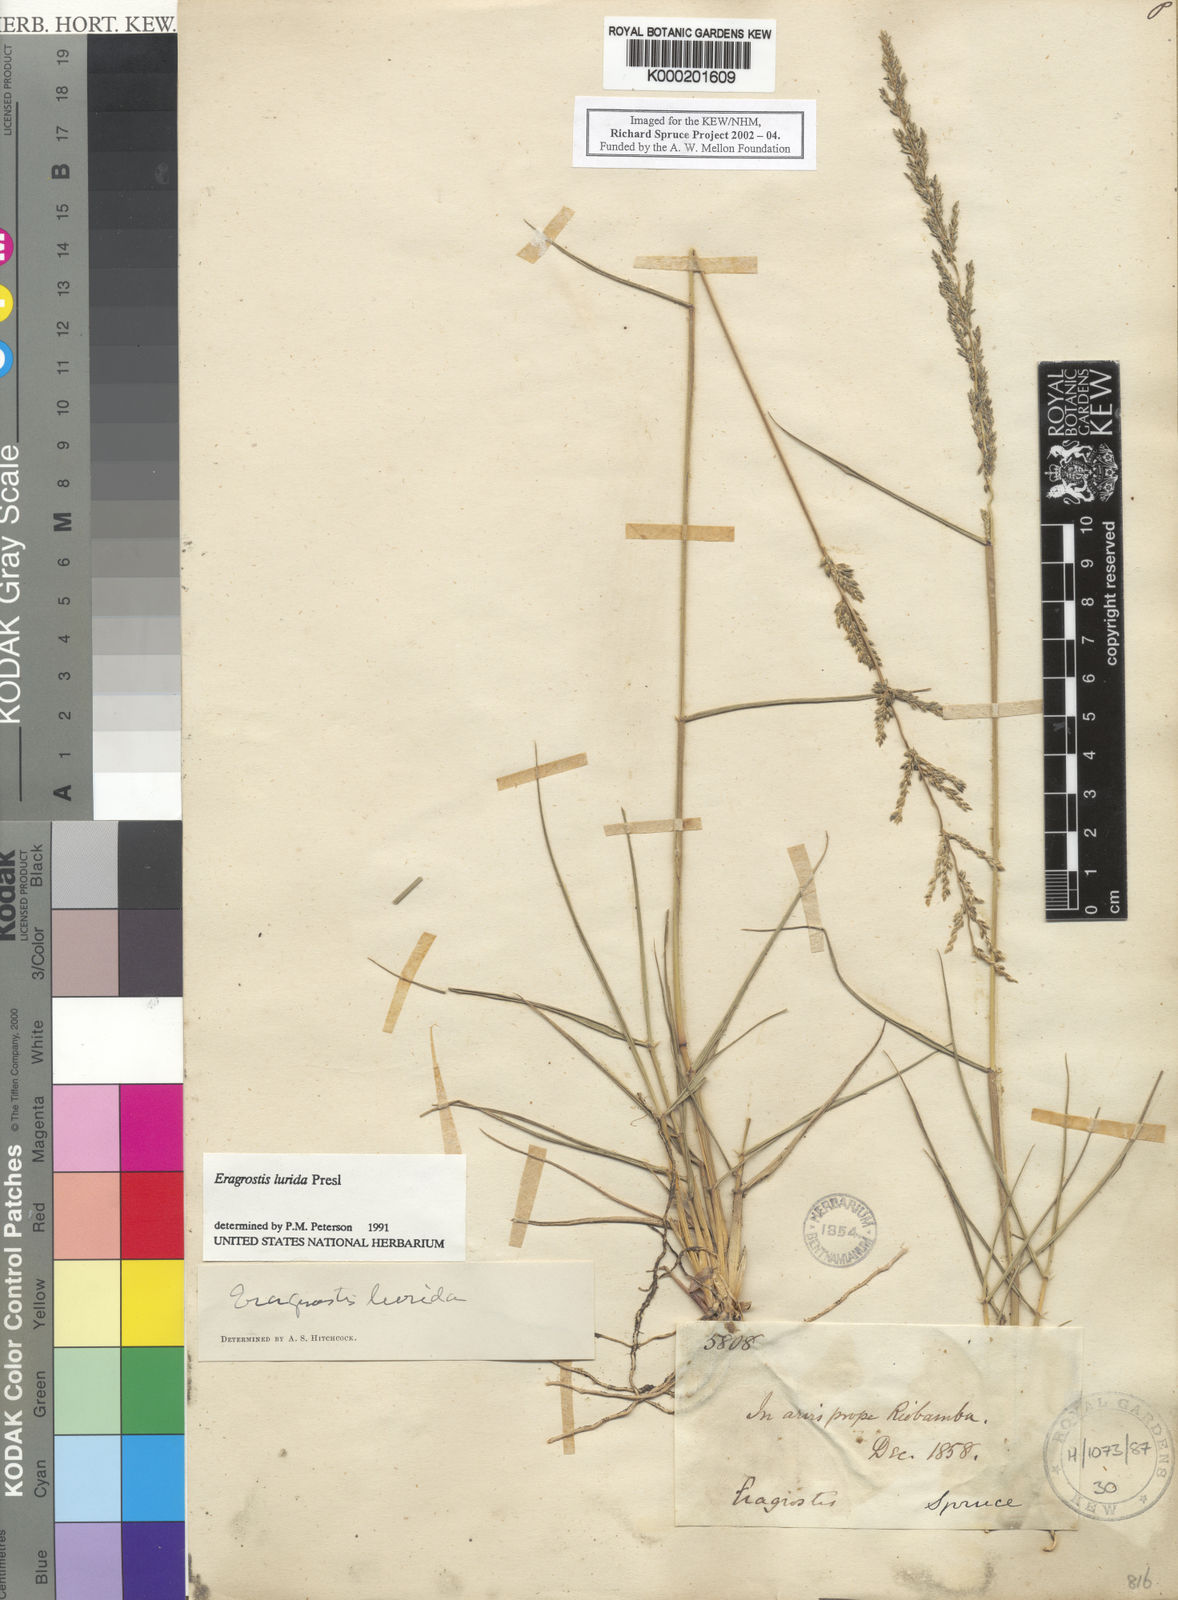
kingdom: Plantae
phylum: Tracheophyta
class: Liliopsida
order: Poales
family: Poaceae
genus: Eragrostis
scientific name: Eragrostis
